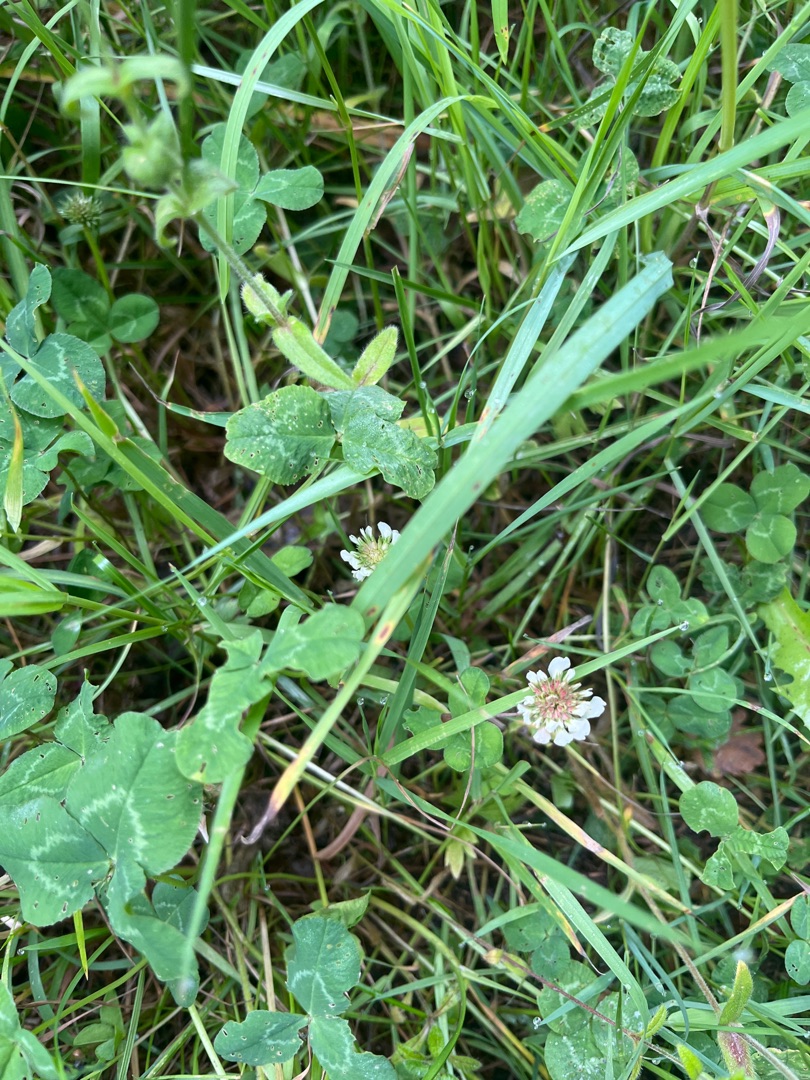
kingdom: Plantae
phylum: Tracheophyta
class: Magnoliopsida
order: Fabales
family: Fabaceae
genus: Trifolium
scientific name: Trifolium repens
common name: Hvid-kløver
